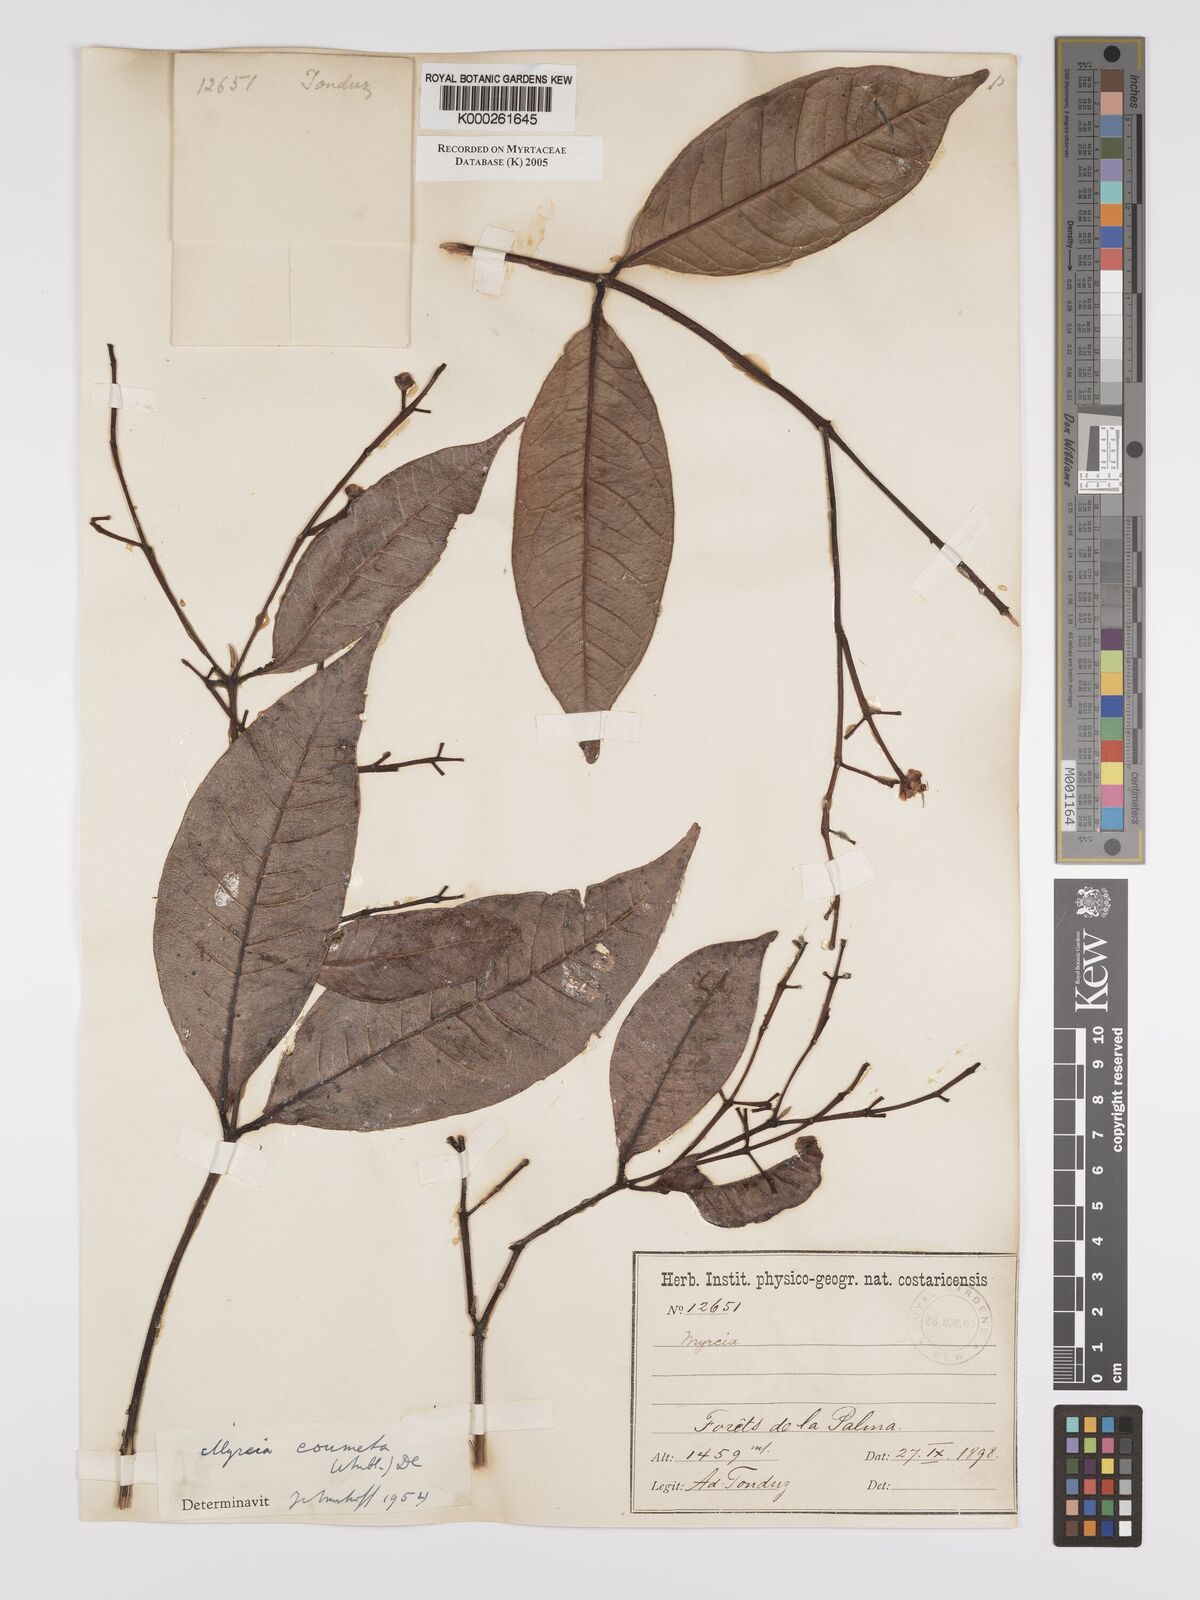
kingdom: Plantae
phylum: Tracheophyta
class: Magnoliopsida
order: Myrtales
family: Myrtaceae
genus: Myrcia
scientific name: Myrcia
